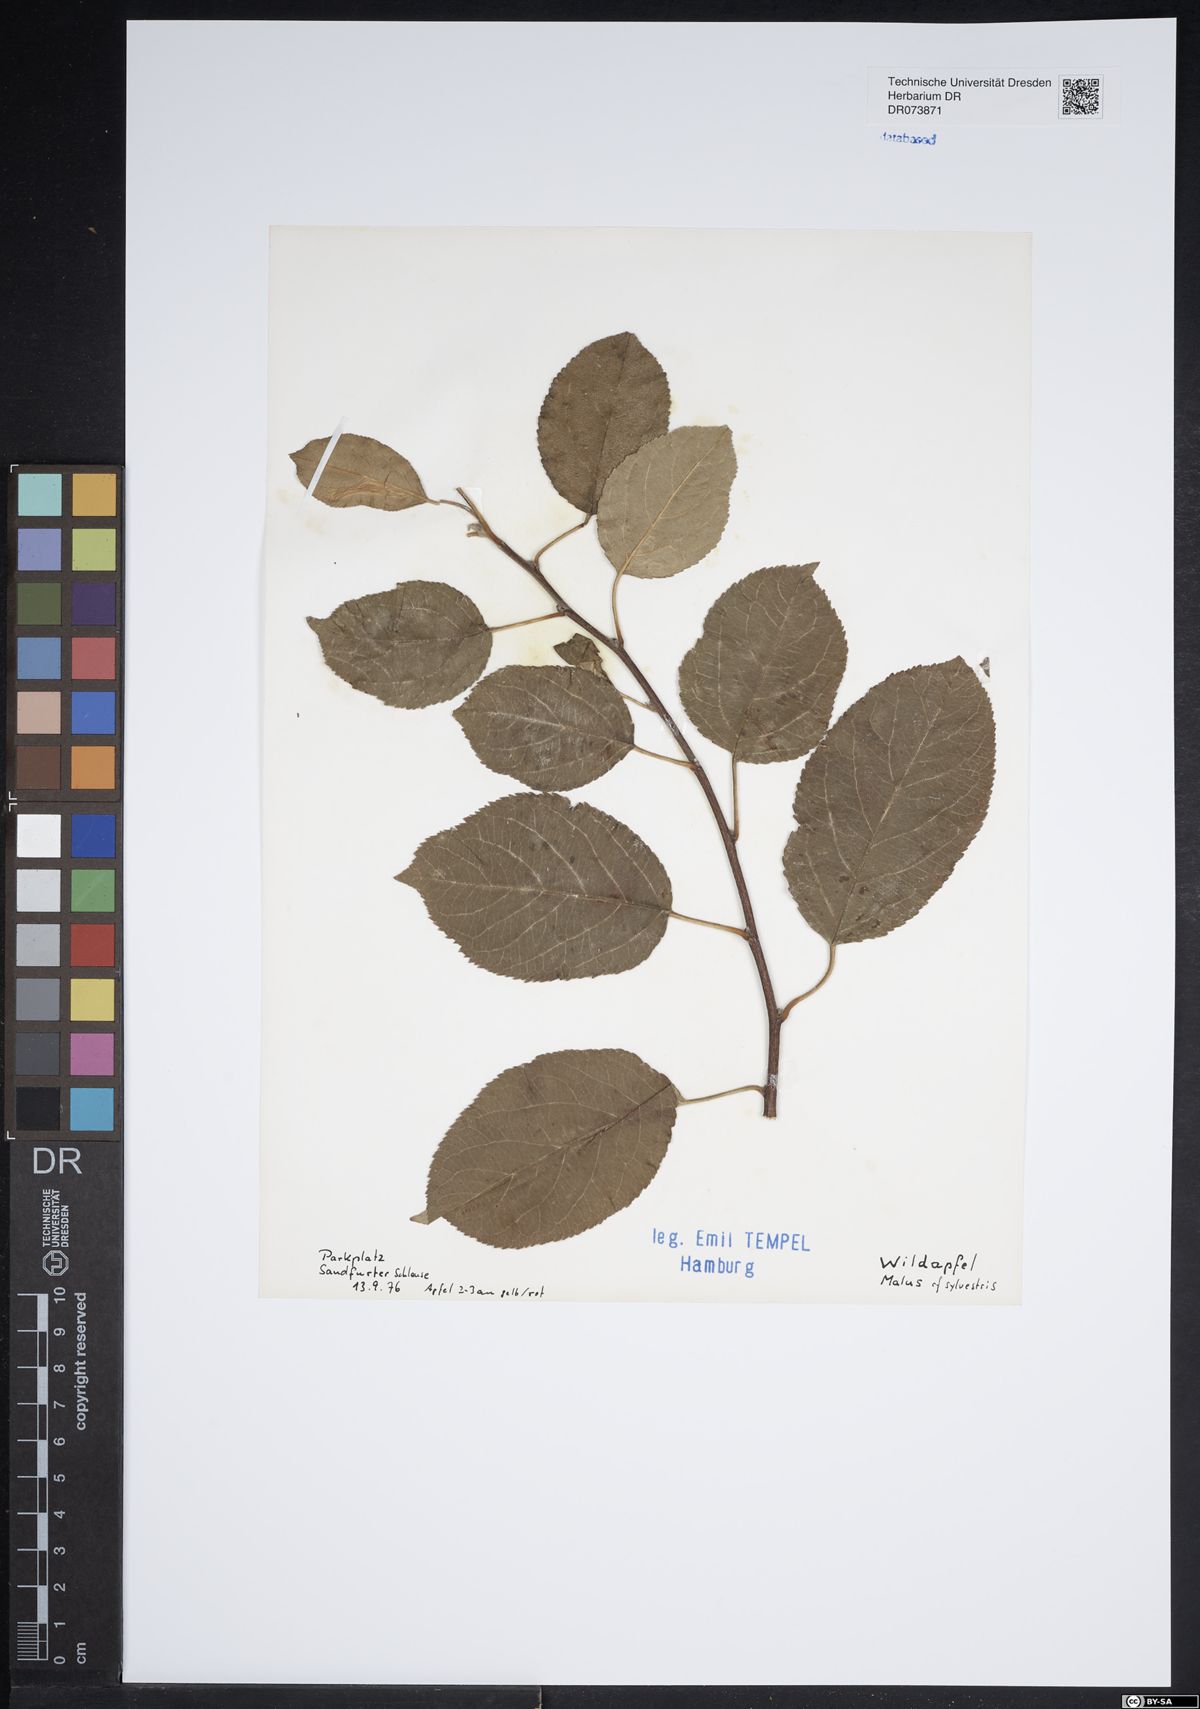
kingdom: Plantae
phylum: Tracheophyta
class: Magnoliopsida
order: Rosales
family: Rosaceae
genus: Malus
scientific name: Malus sylvestris
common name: Crab apple
